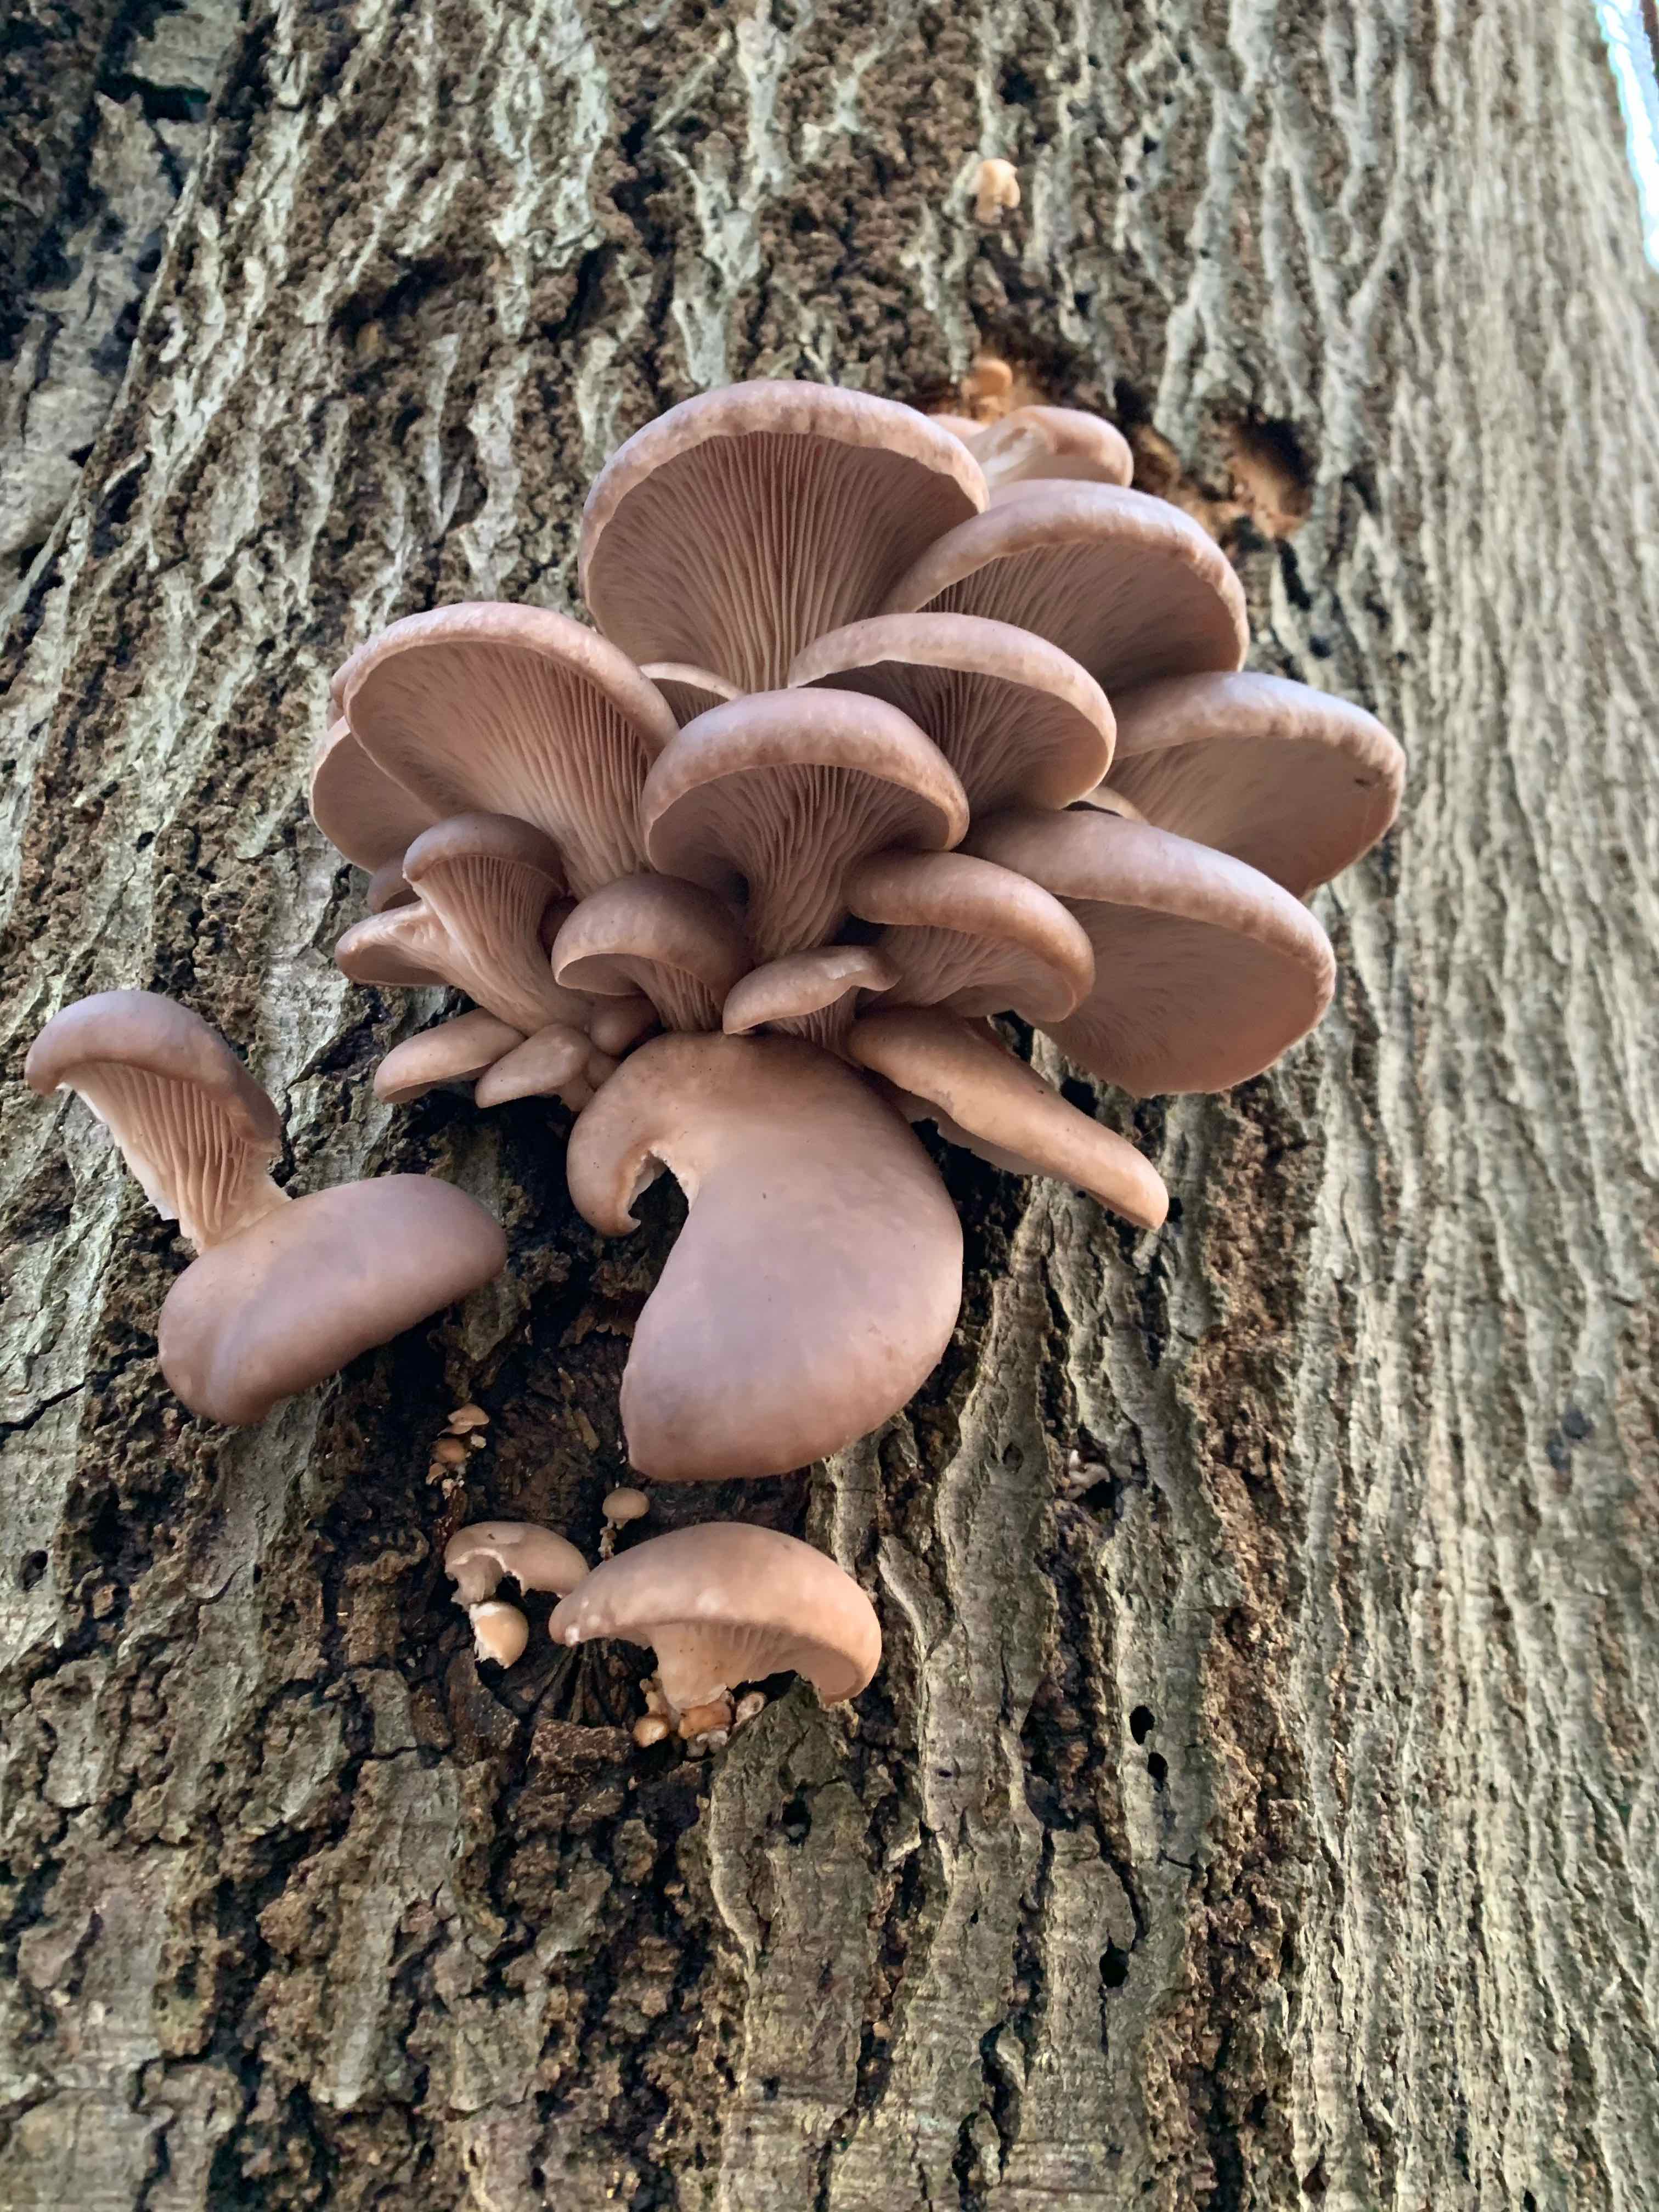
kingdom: Fungi
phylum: Basidiomycota
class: Agaricomycetes
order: Agaricales
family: Pleurotaceae
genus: Pleurotus
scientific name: Pleurotus ostreatus
